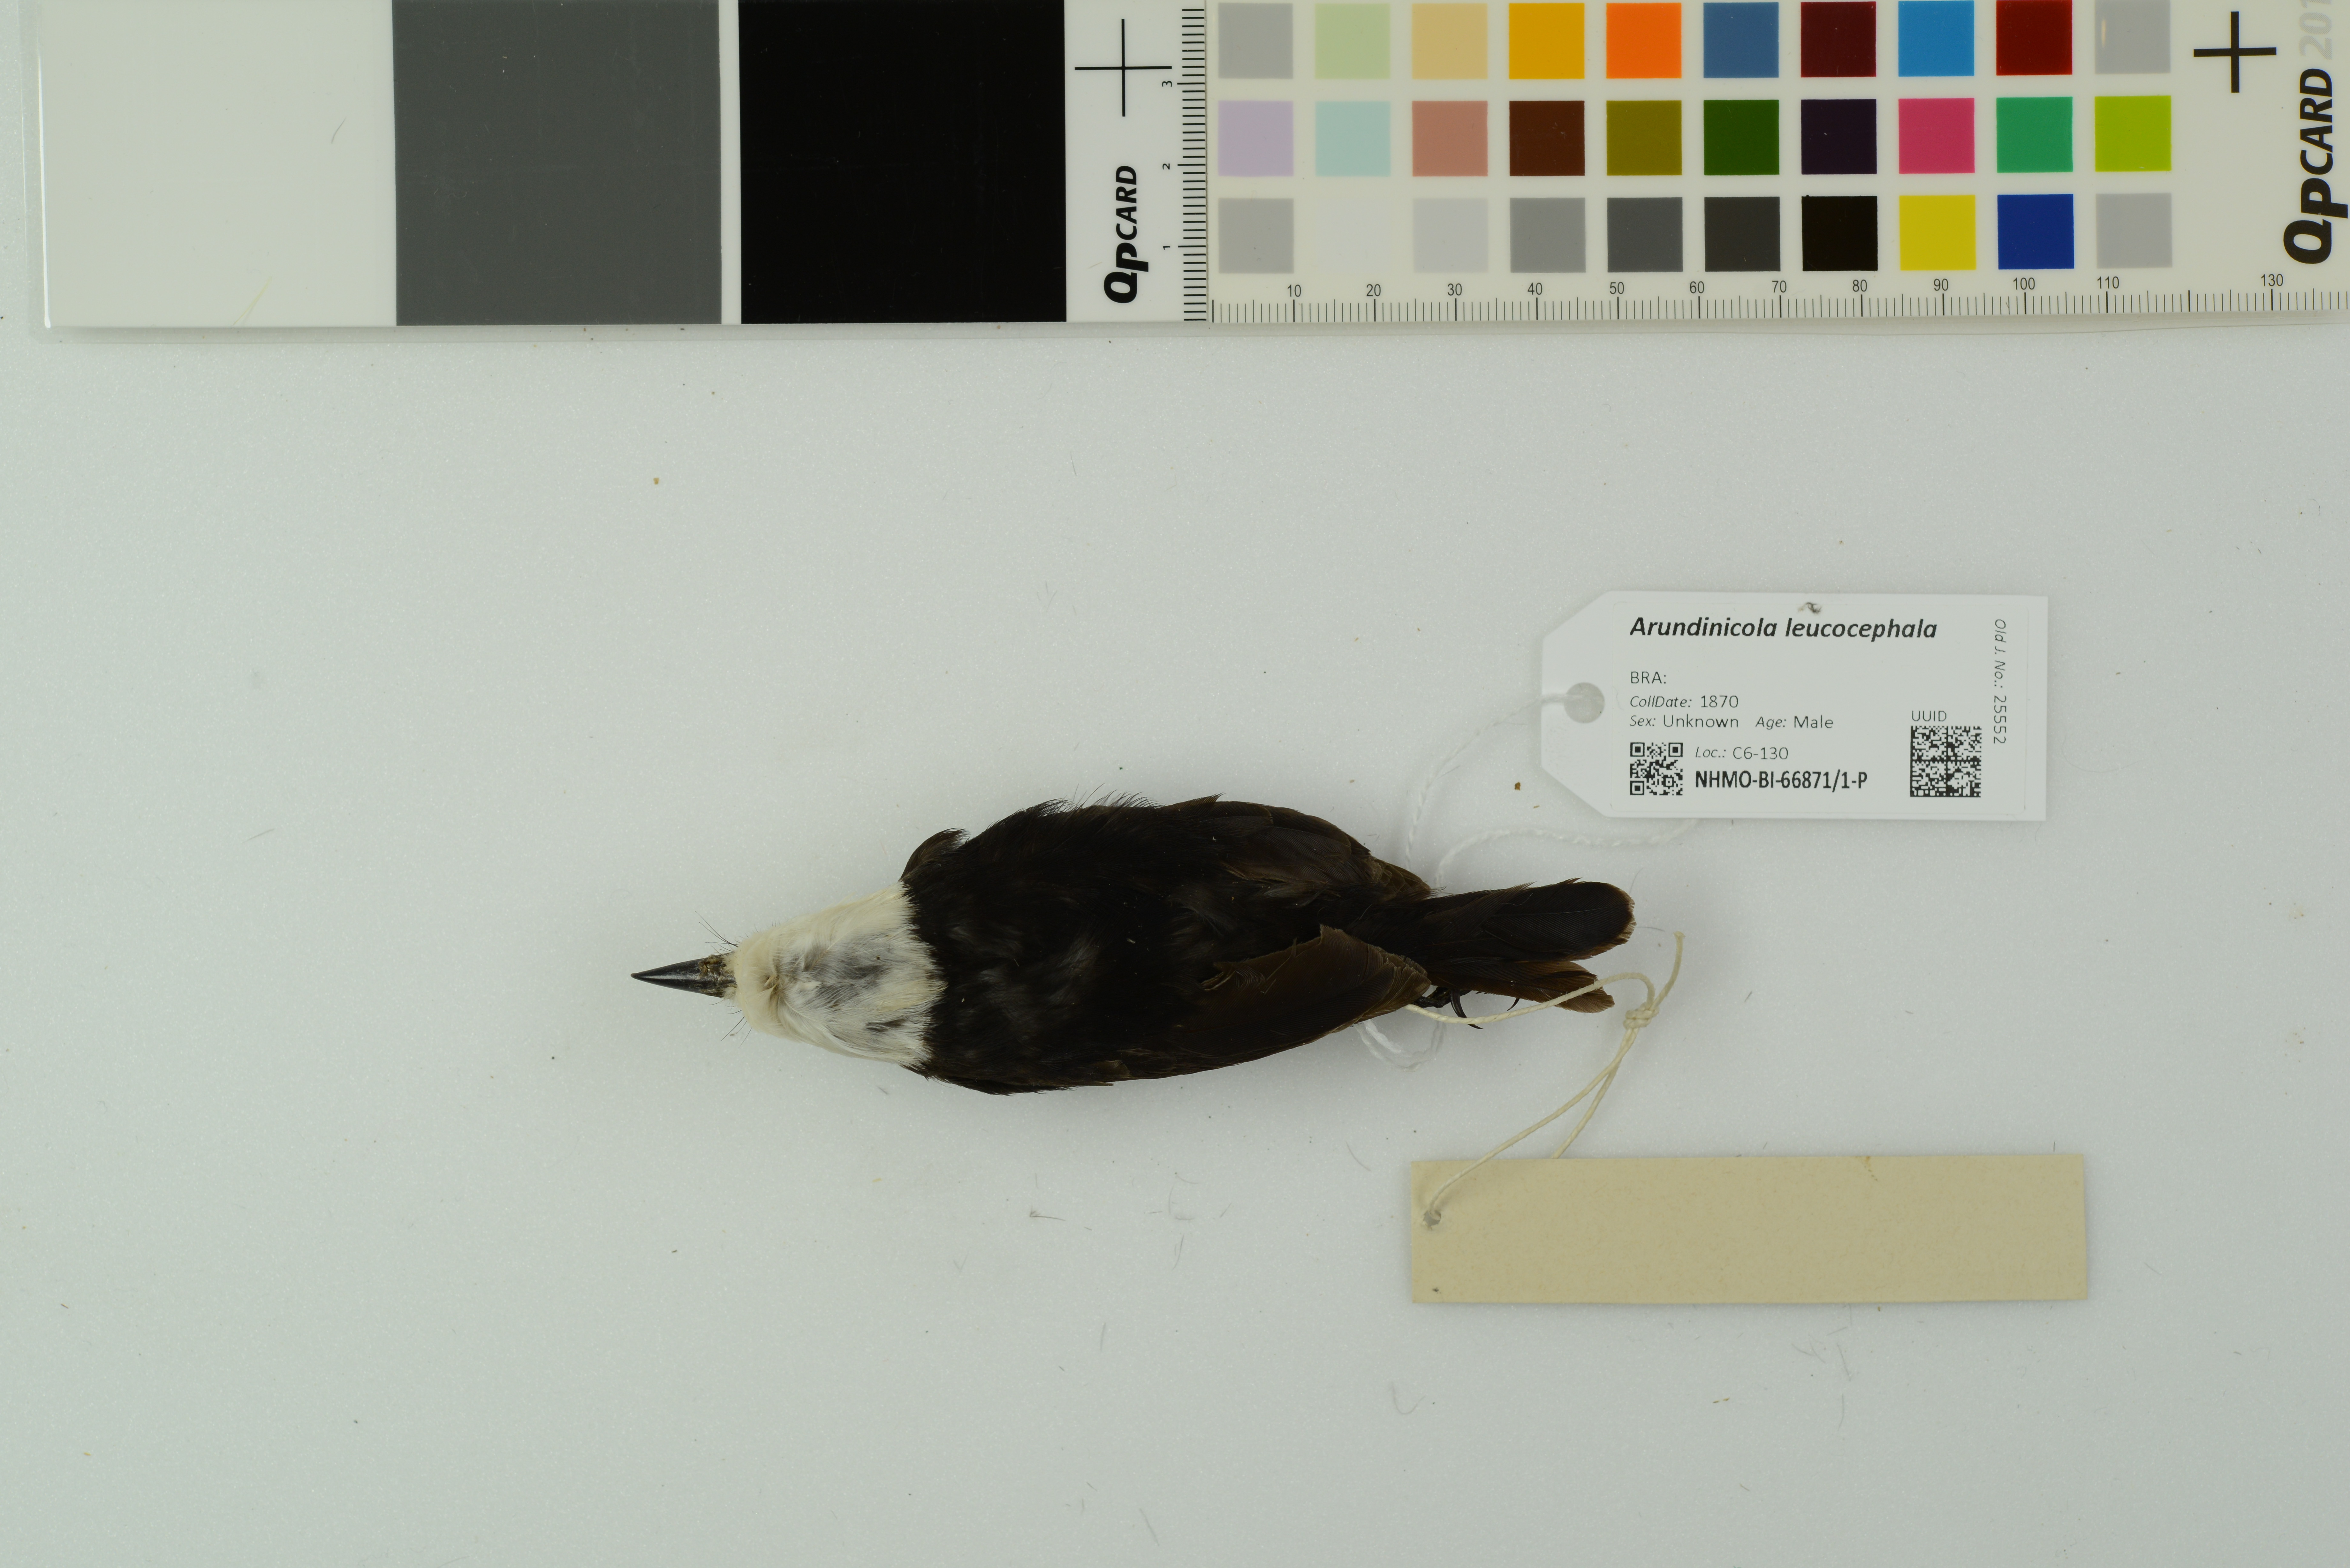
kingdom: Animalia
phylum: Chordata
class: Aves
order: Passeriformes
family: Tyrannidae
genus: Arundinicola
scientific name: Arundinicola leucocephala
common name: White-headed marsh tyrant
